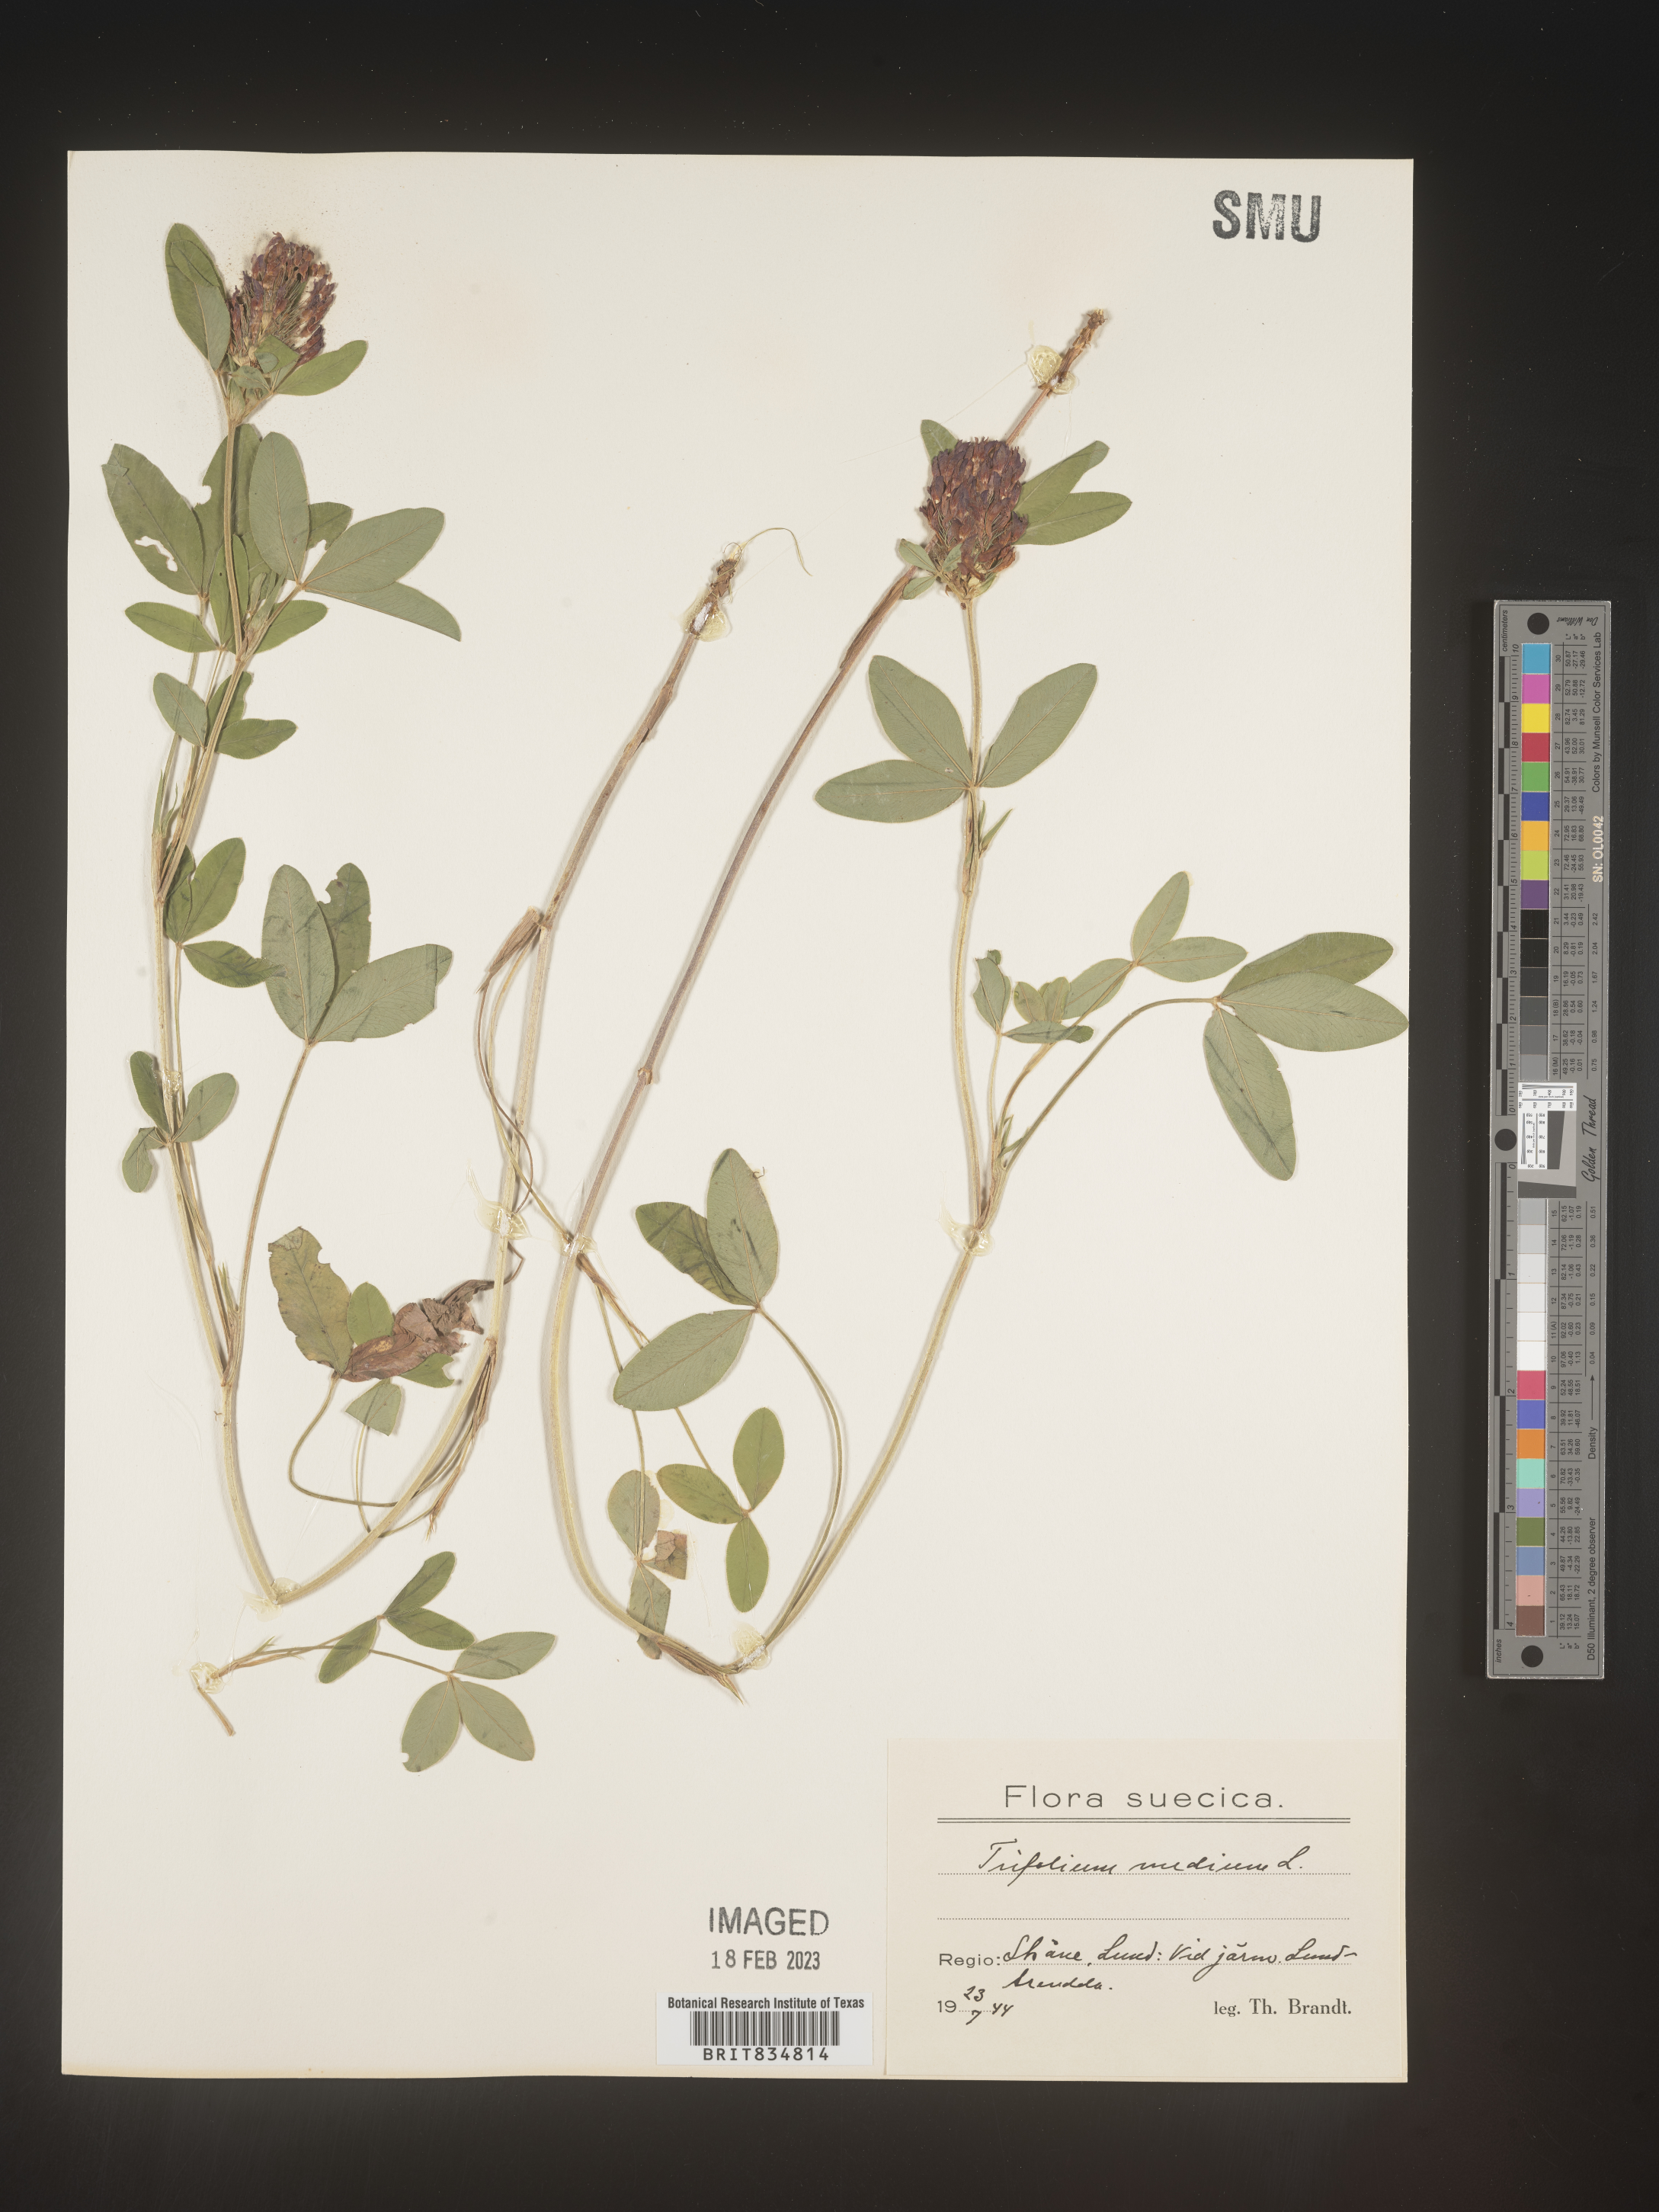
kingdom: Plantae
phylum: Tracheophyta
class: Magnoliopsida
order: Fabales
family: Fabaceae
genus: Trifolium
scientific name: Trifolium
